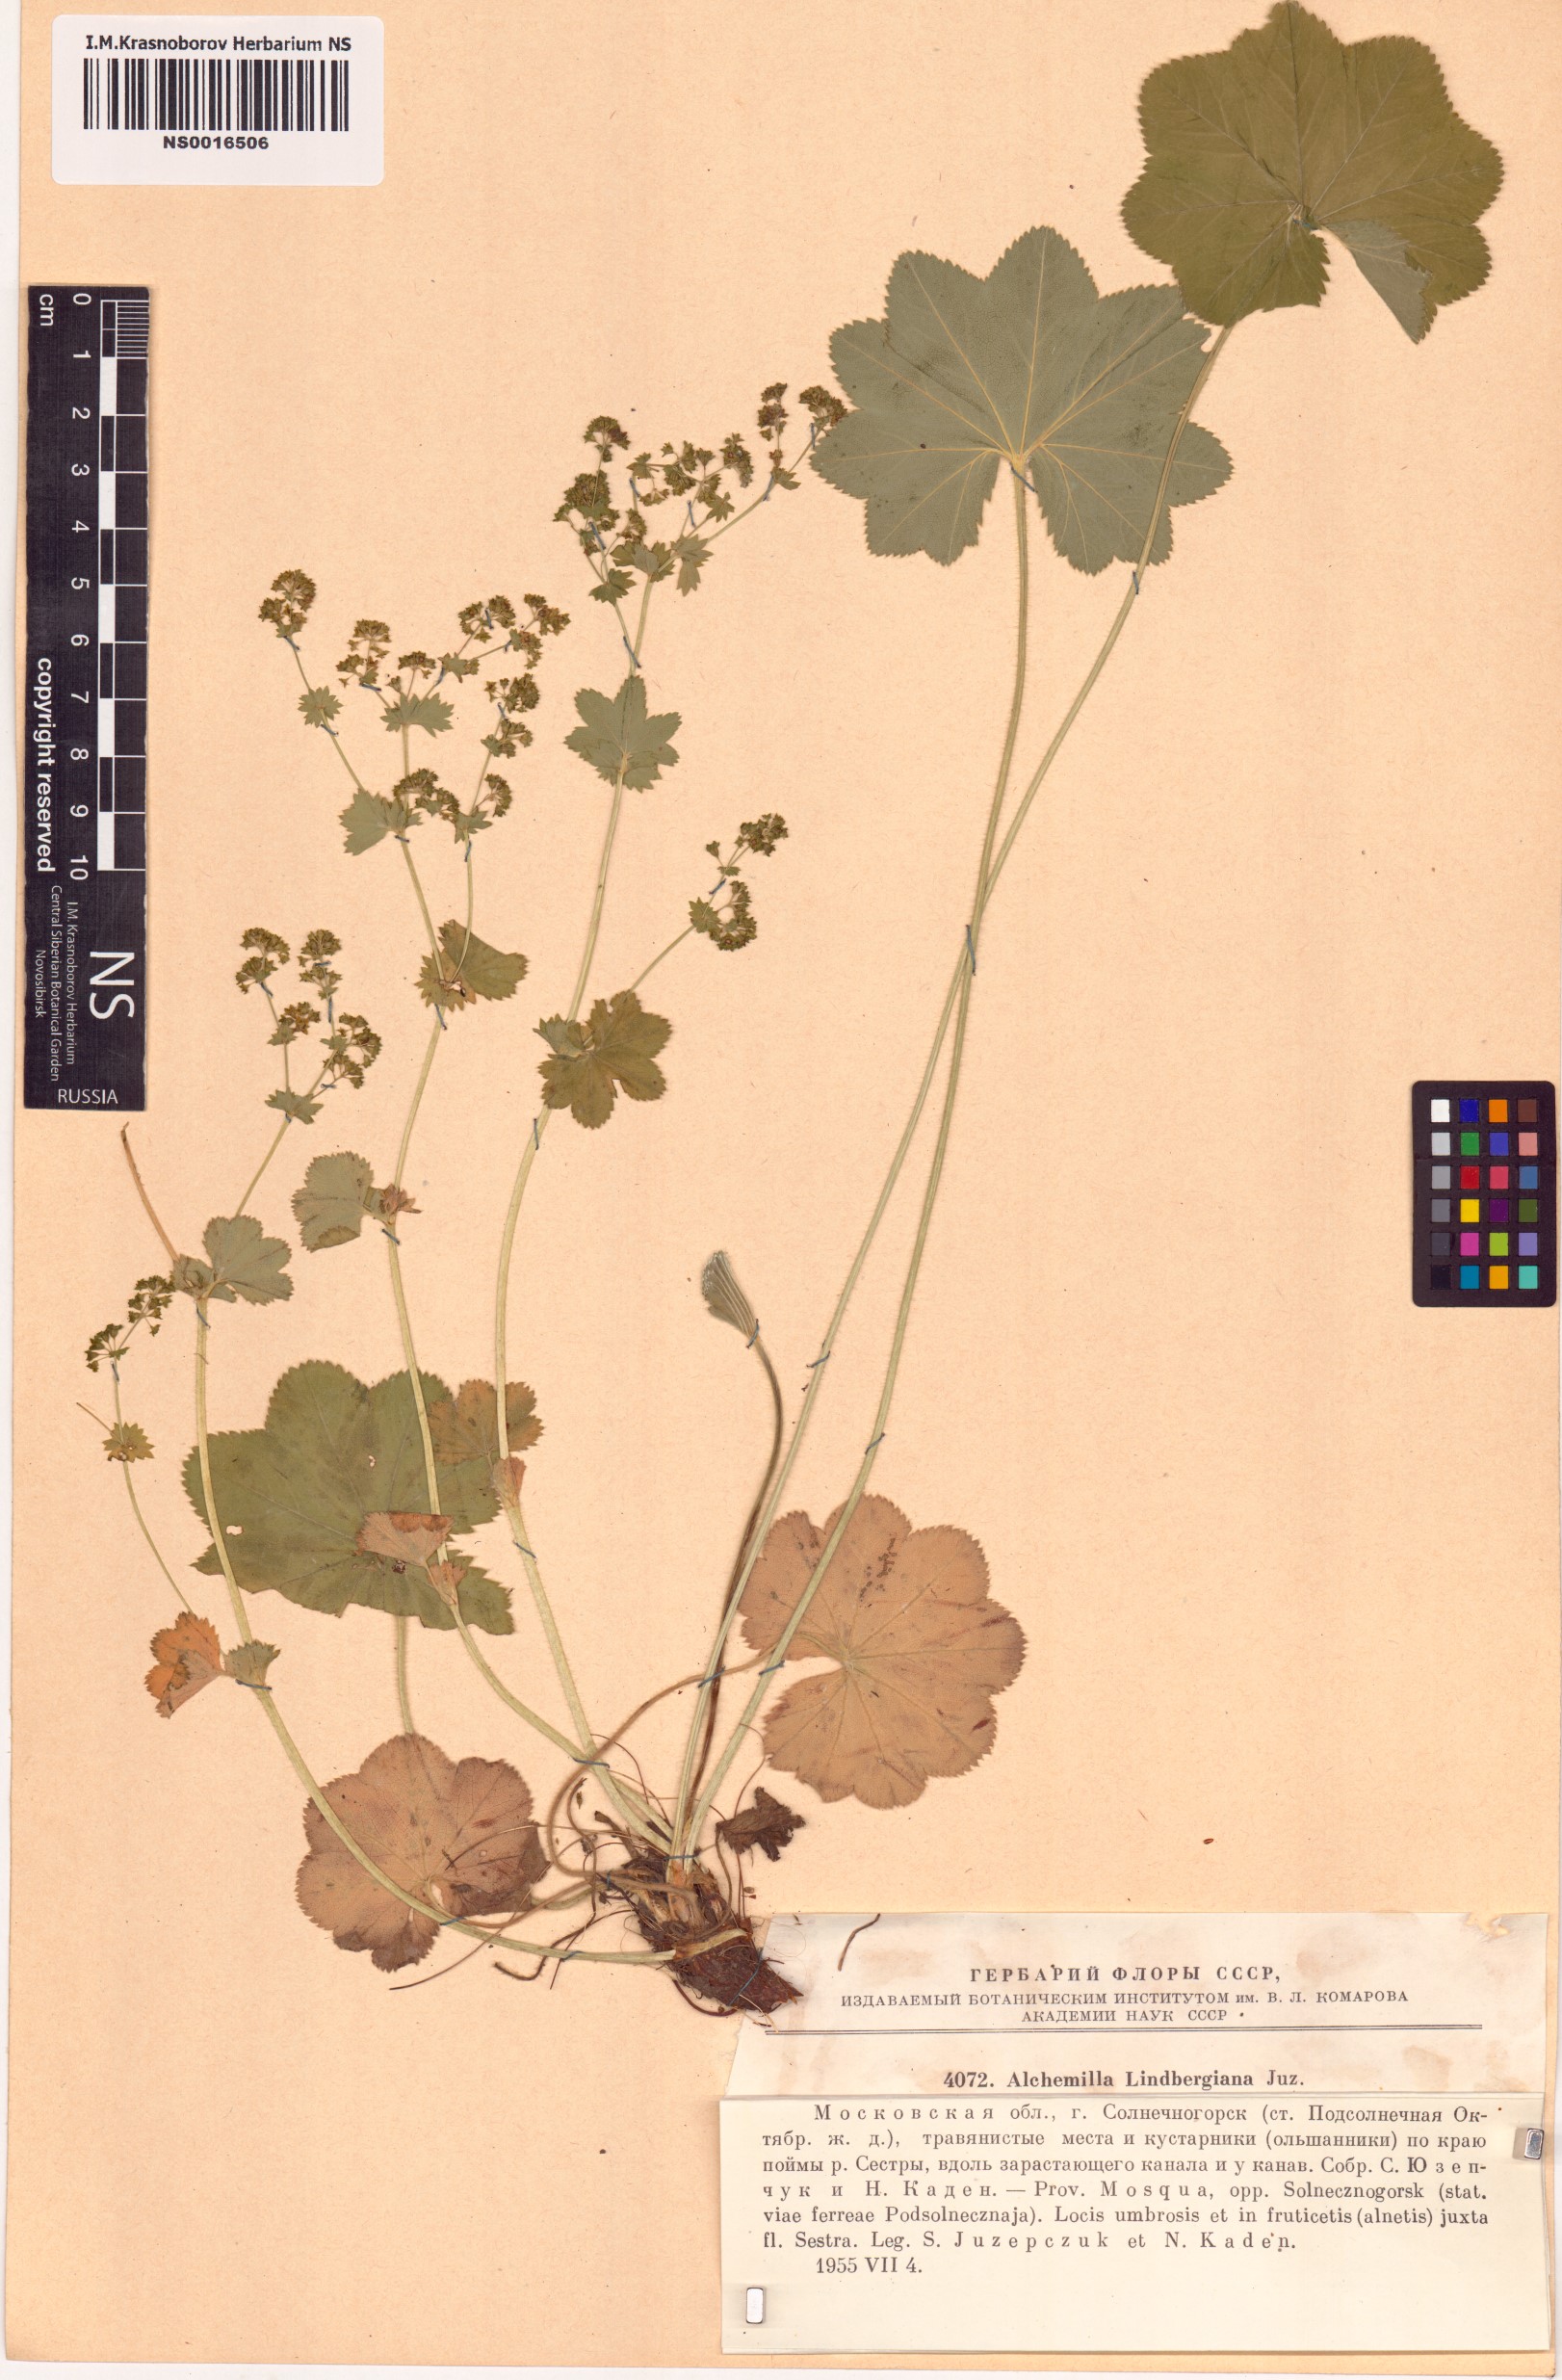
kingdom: Plantae
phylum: Tracheophyta
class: Magnoliopsida
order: Rosales
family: Rosaceae
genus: Alchemilla
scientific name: Alchemilla lindbergiana
